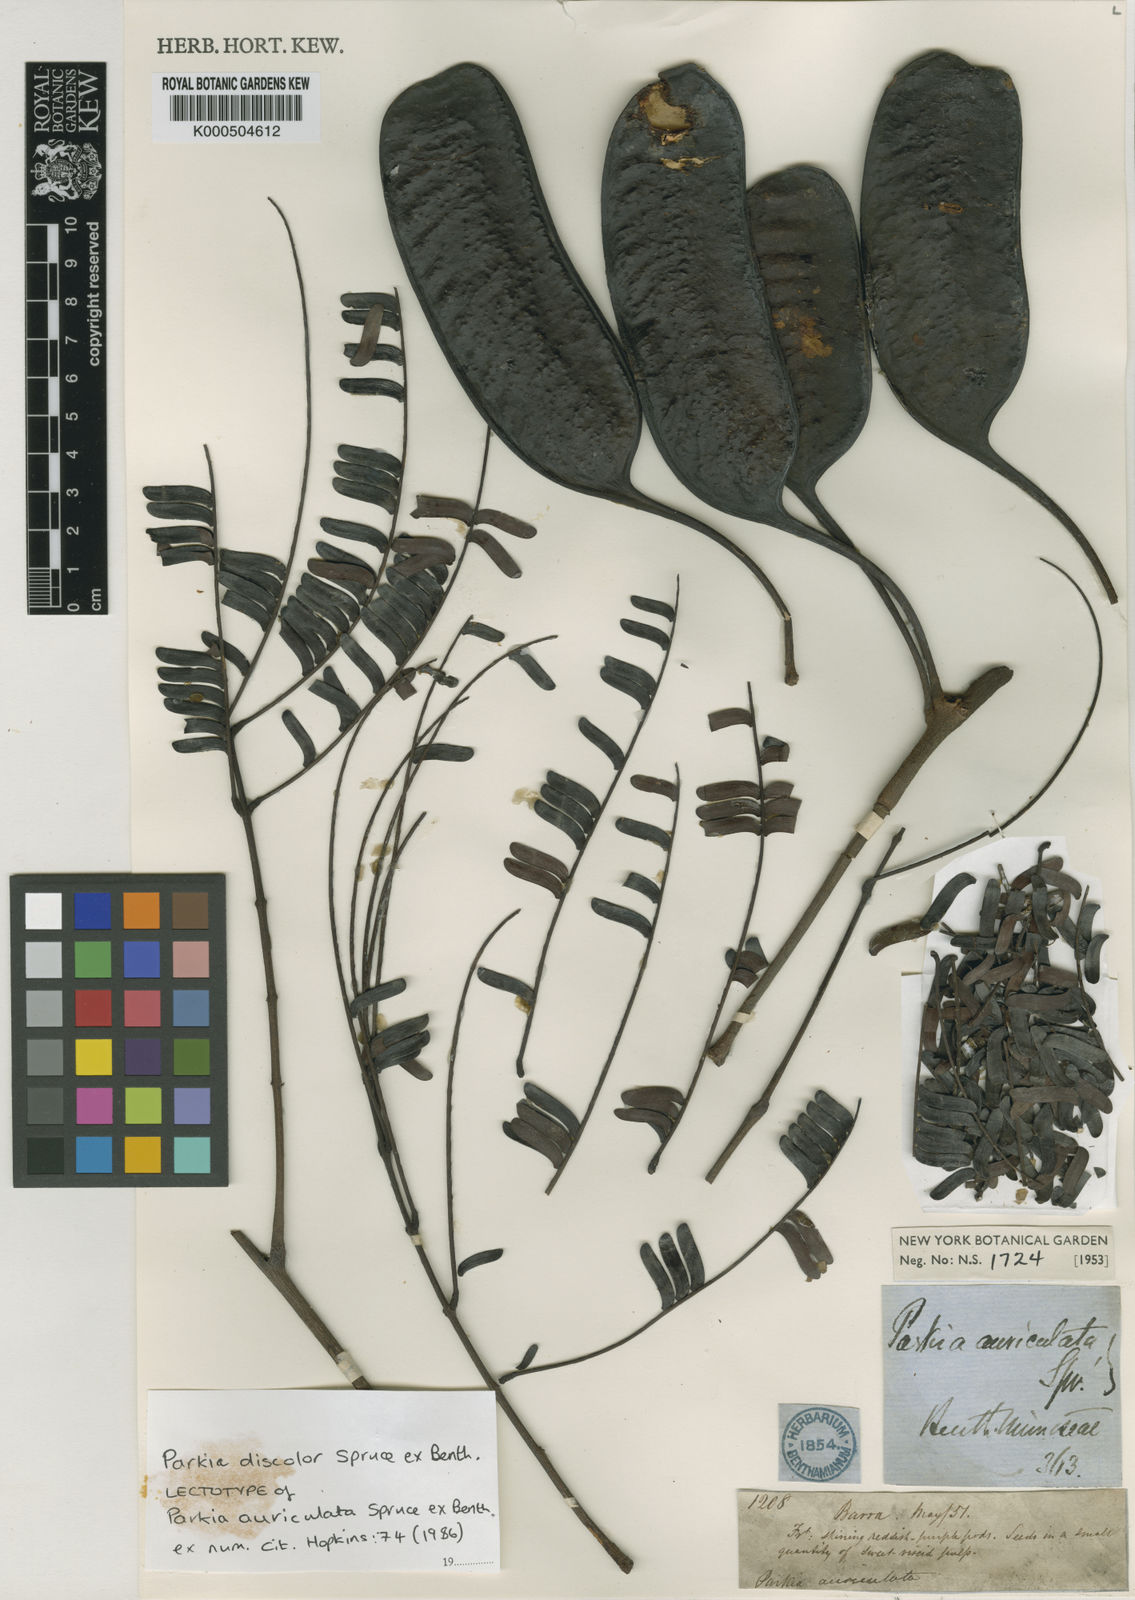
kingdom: Plantae
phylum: Tracheophyta
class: Magnoliopsida
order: Fabales
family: Fabaceae
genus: Parkia
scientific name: Parkia discolor
